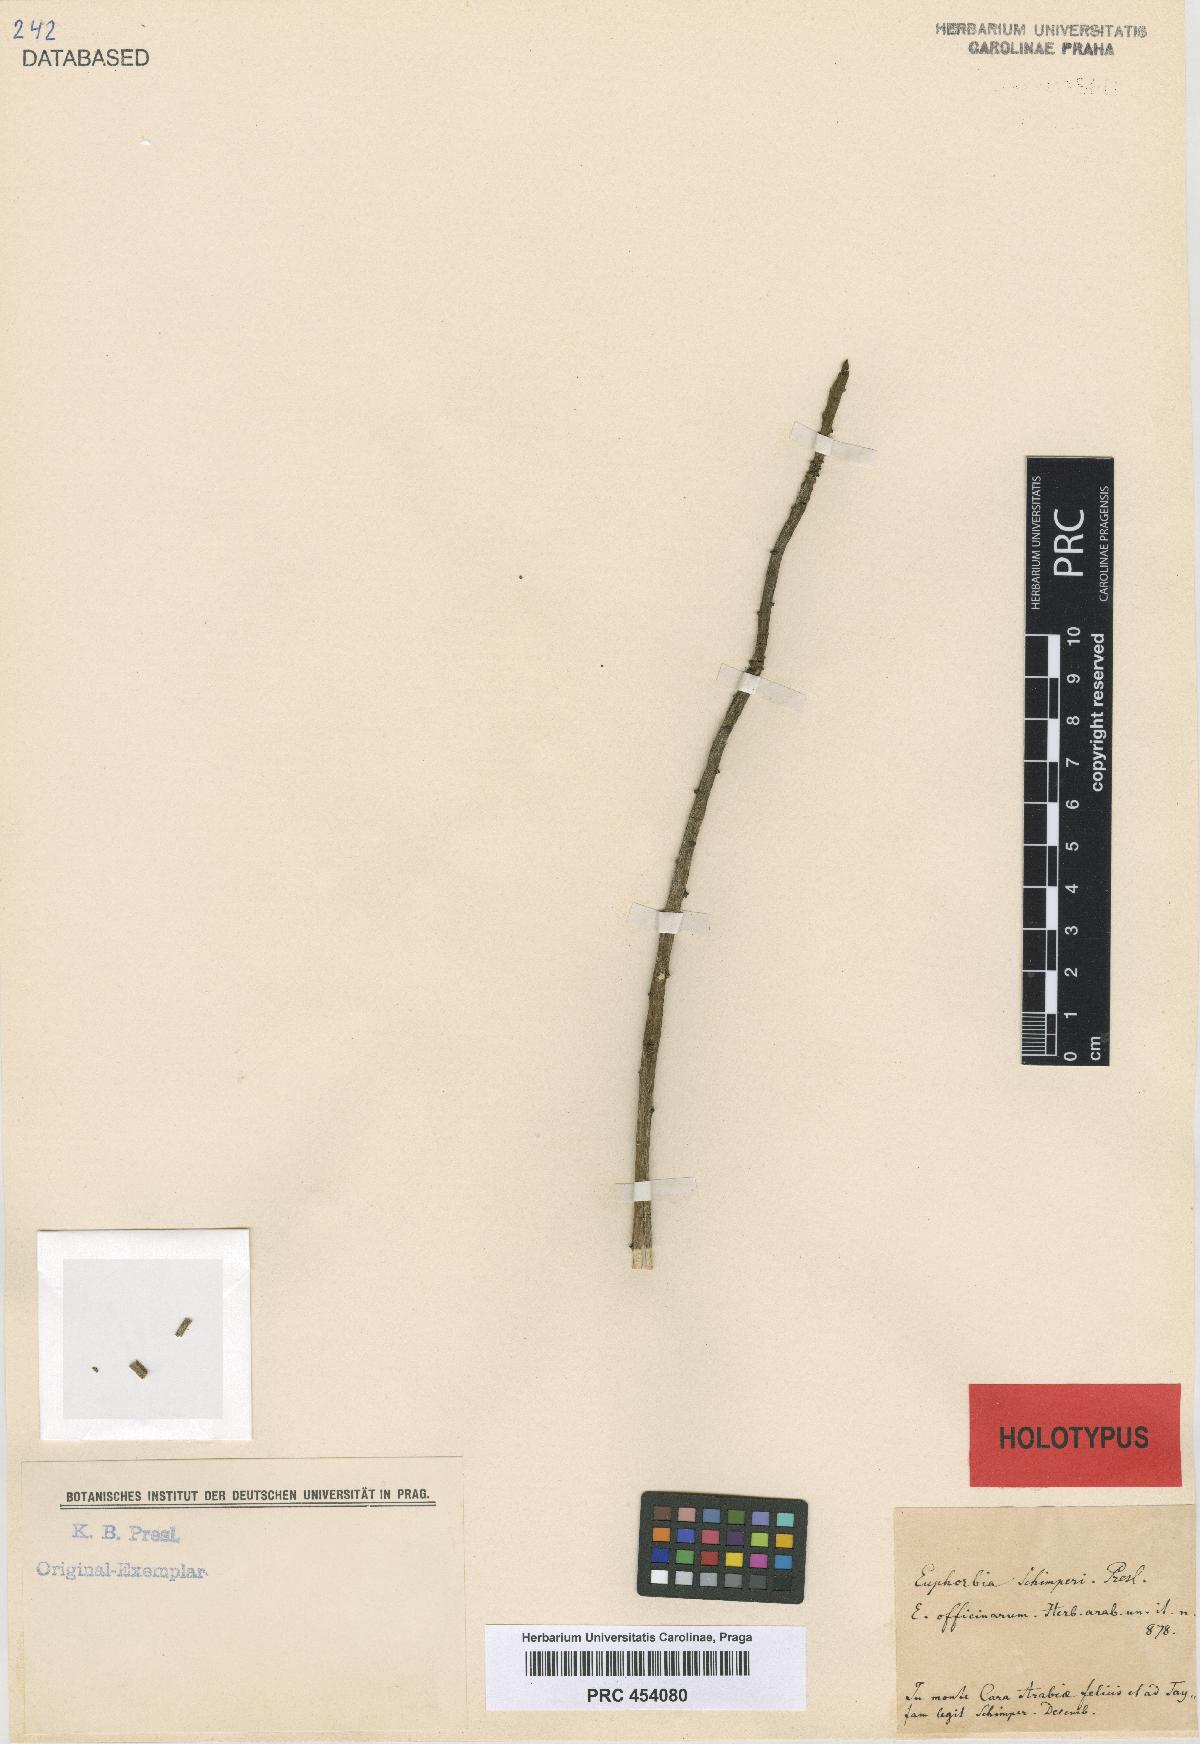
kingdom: Plantae
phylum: Tracheophyta
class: Magnoliopsida
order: Malpighiales
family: Euphorbiaceae
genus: Euphorbia
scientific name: Euphorbia schimperi
